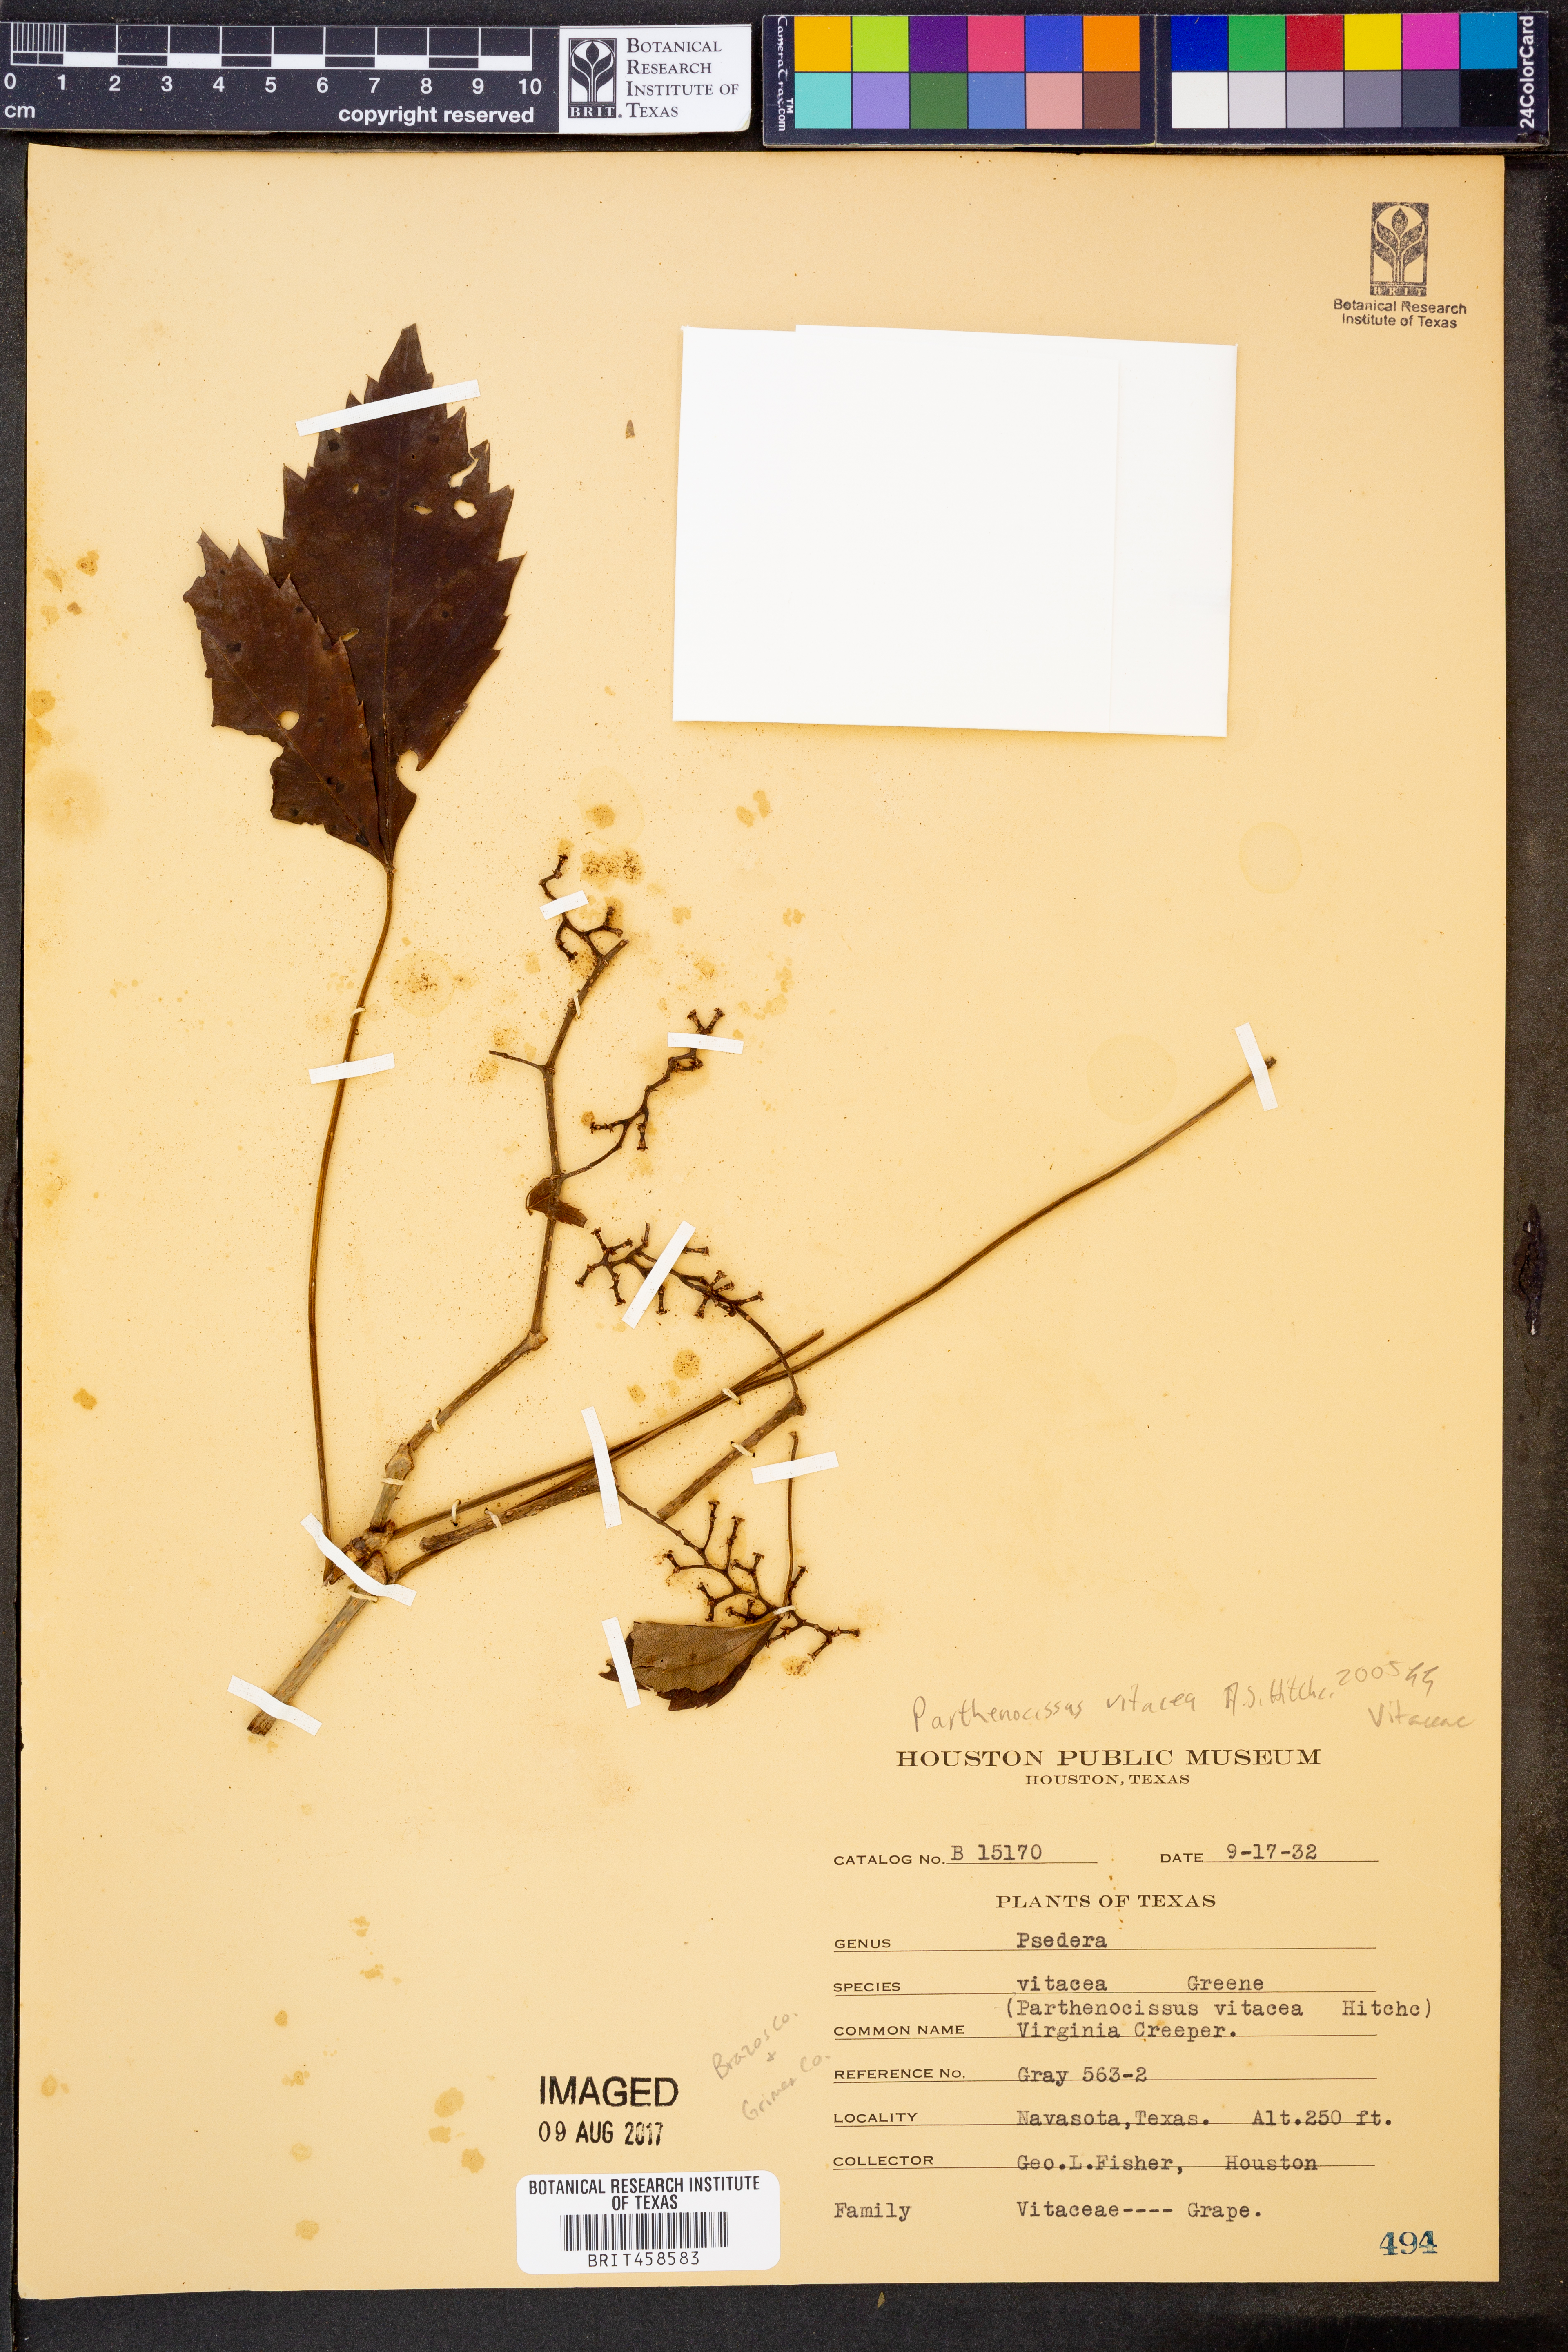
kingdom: Plantae
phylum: Tracheophyta
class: Magnoliopsida
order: Vitales
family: Vitaceae
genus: Parthenocissus
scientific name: Parthenocissus inserta
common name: False virginia-creeper
